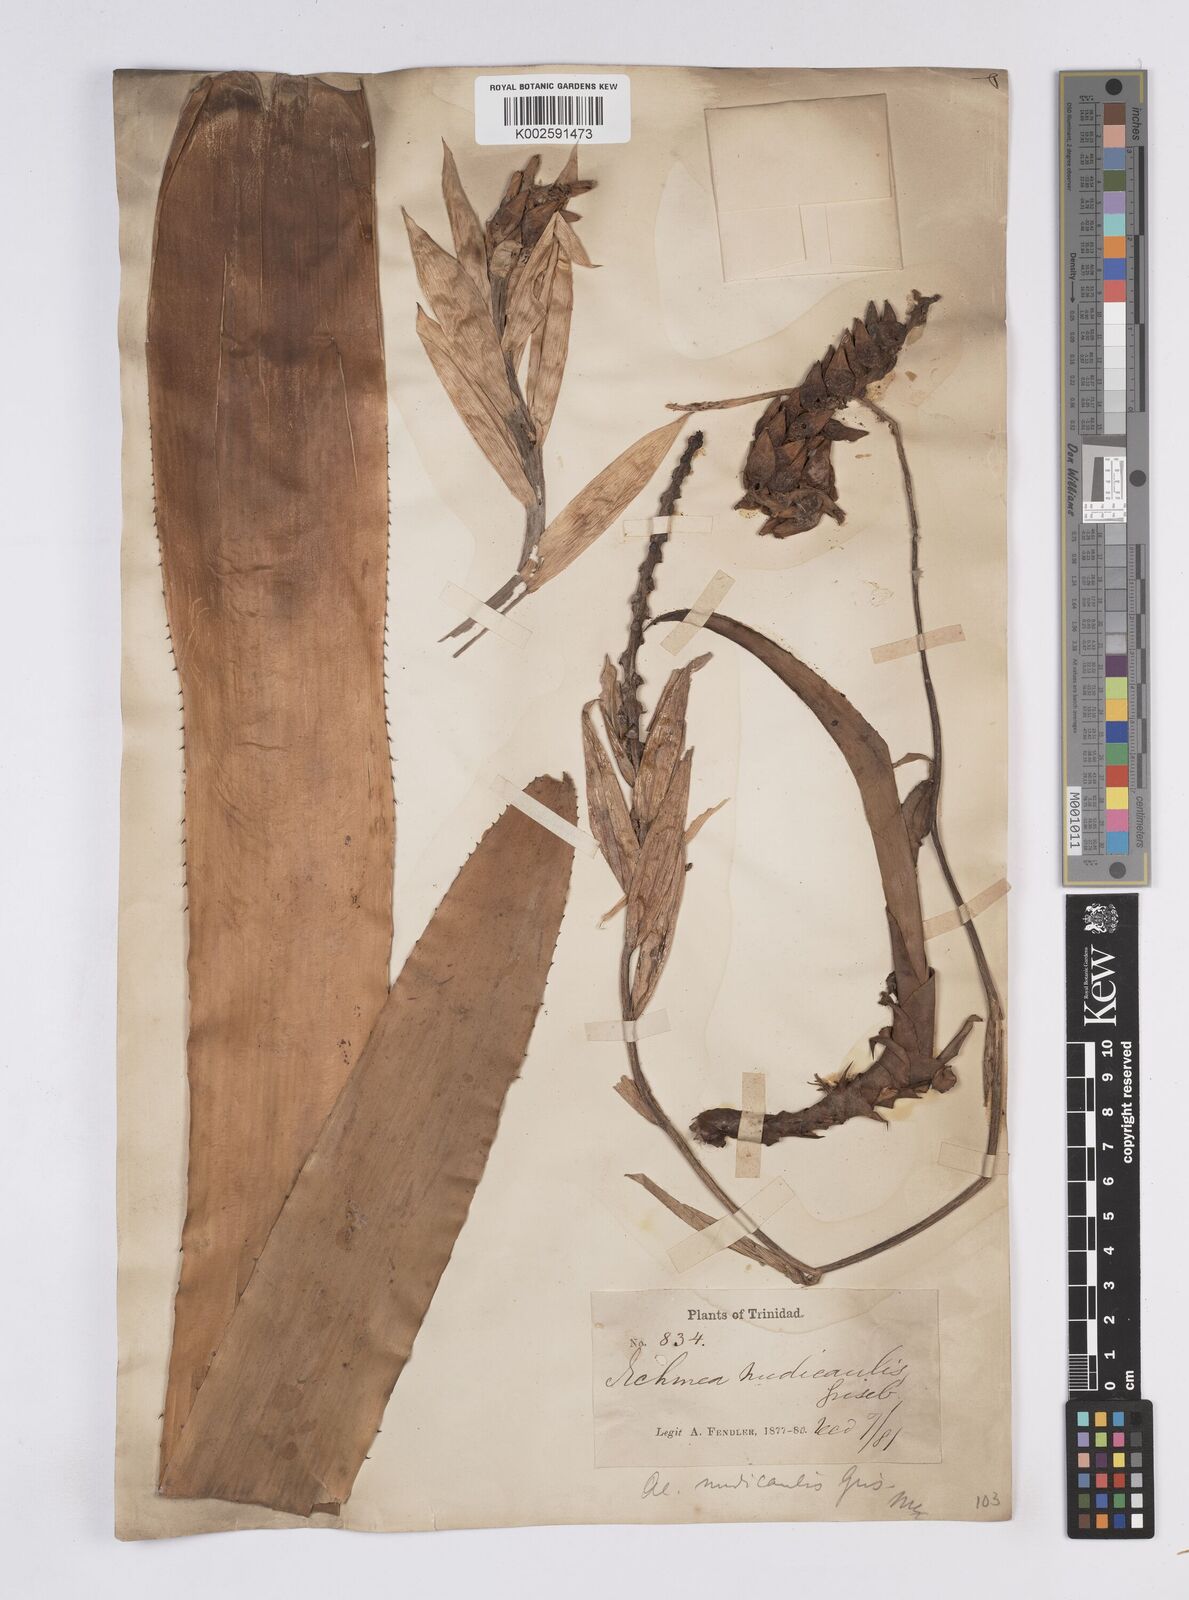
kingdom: Plantae
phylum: Tracheophyta
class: Liliopsida
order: Poales
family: Bromeliaceae
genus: Aechmea
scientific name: Aechmea nudicaulis
